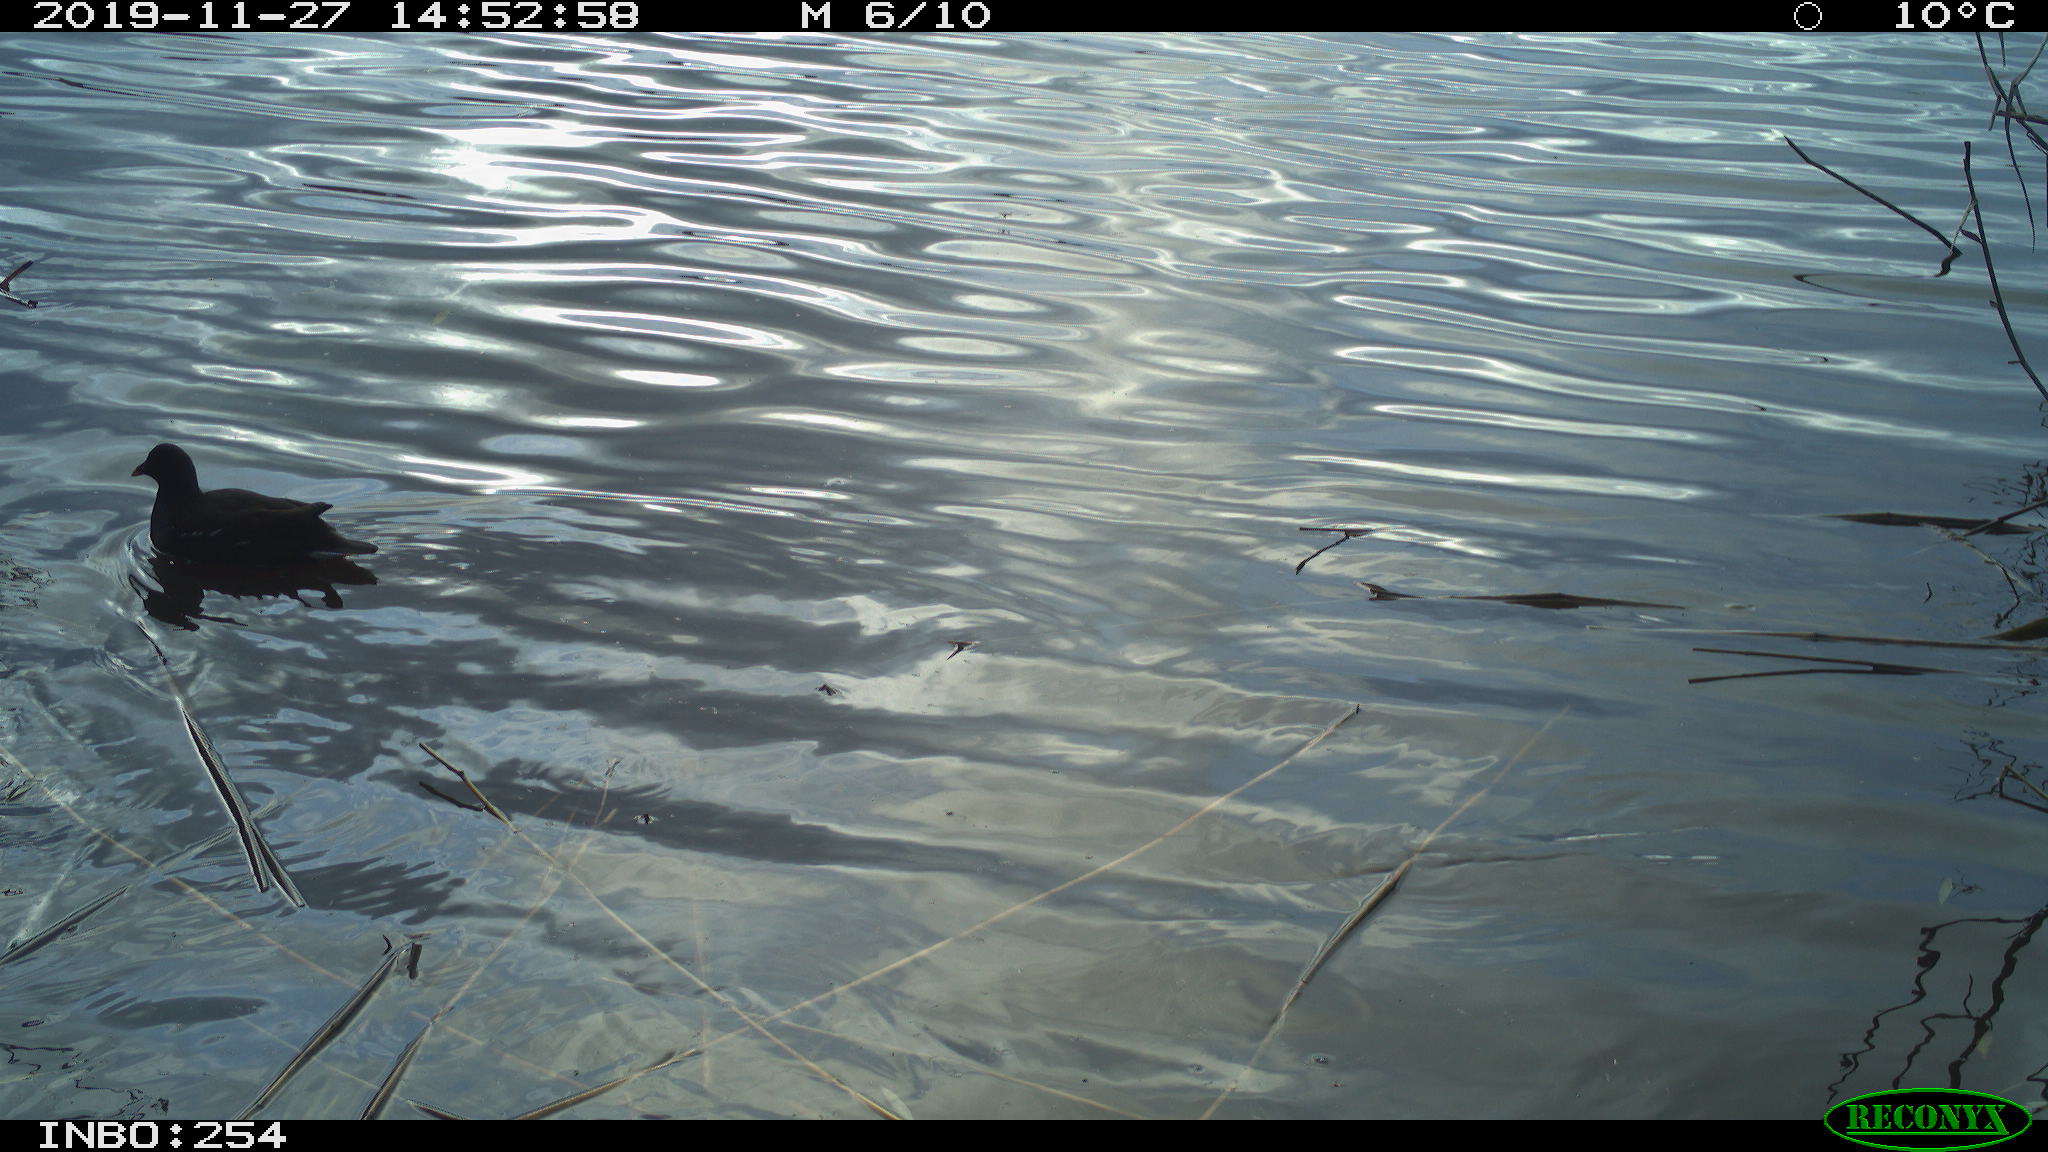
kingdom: Animalia
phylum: Chordata
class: Aves
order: Gruiformes
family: Rallidae
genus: Fulica
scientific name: Fulica atra
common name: Eurasian coot
